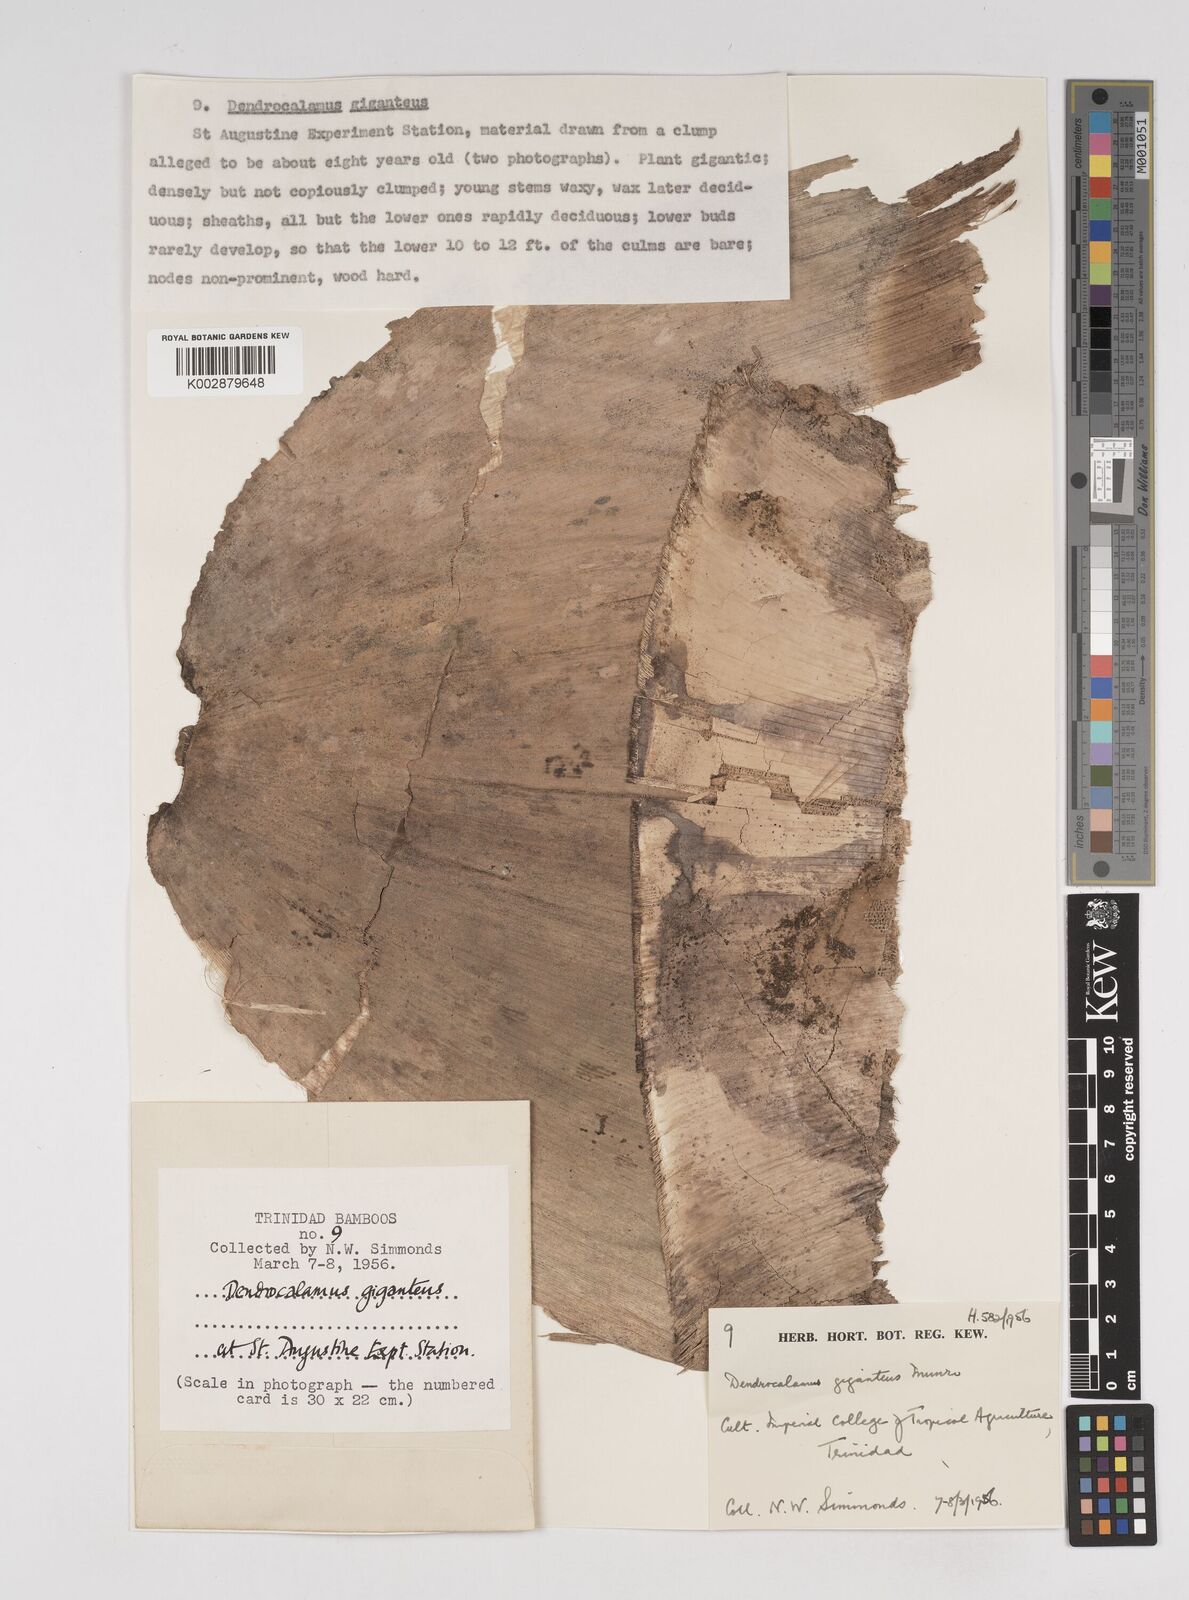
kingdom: Plantae
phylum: Tracheophyta
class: Liliopsida
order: Poales
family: Poaceae
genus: Dendrocalamus
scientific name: Dendrocalamus giganteus
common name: Giant bamboo
